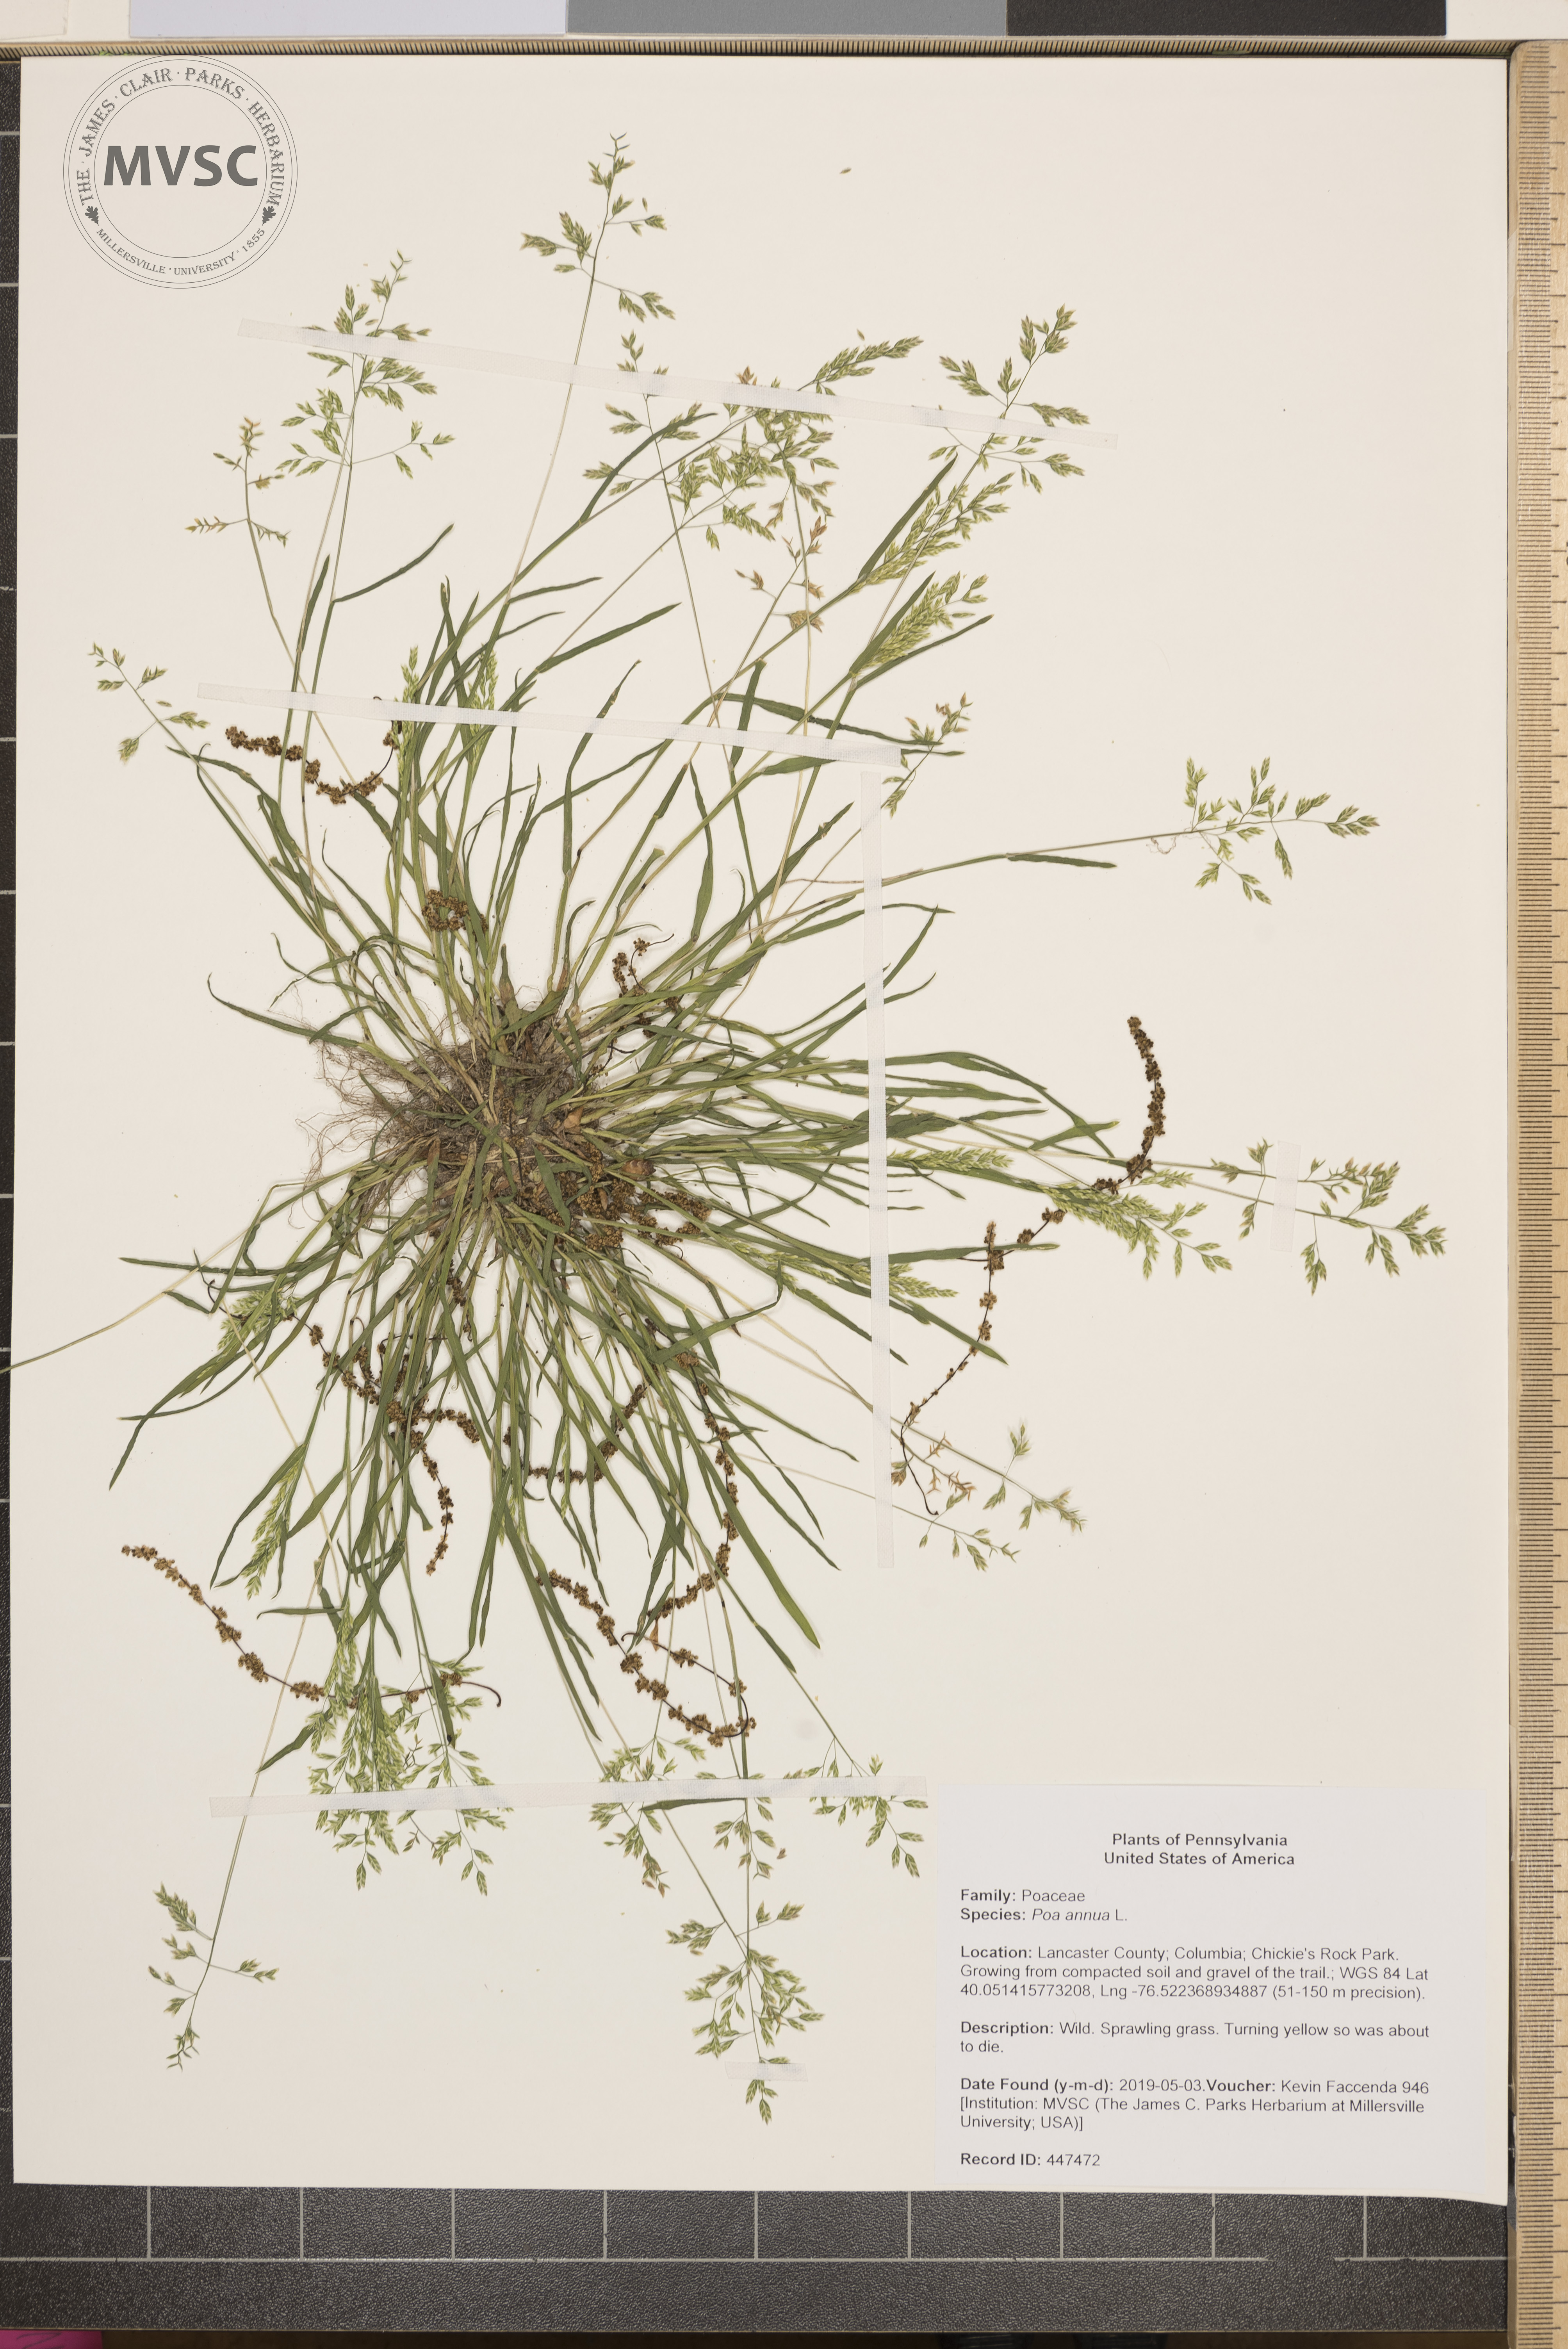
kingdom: Plantae
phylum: Tracheophyta
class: Liliopsida
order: Poales
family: Poaceae
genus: Poa
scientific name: Poa annua
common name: Annual bluegrass
